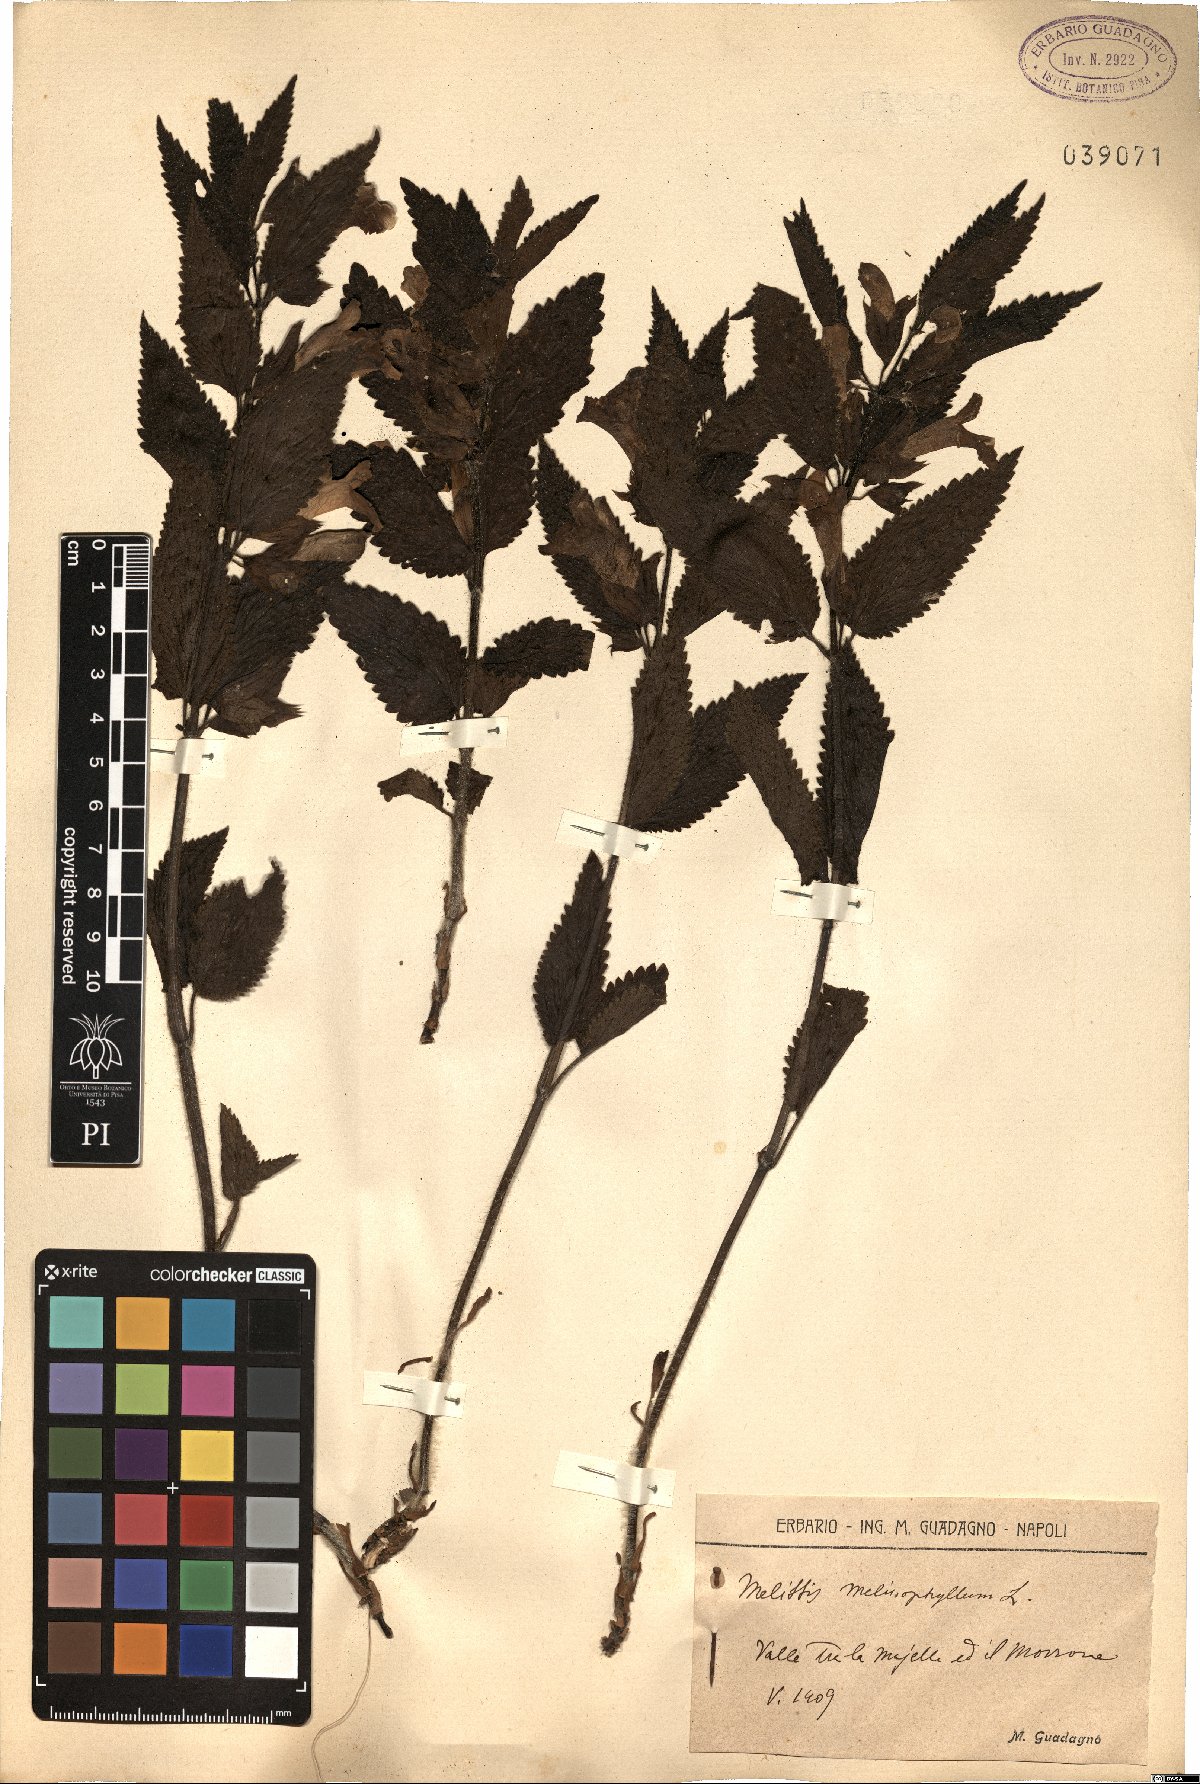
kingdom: Plantae
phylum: Tracheophyta
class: Magnoliopsida
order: Lamiales
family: Lamiaceae
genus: Melittis
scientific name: Melittis melissophyllum
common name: Bastard balm
